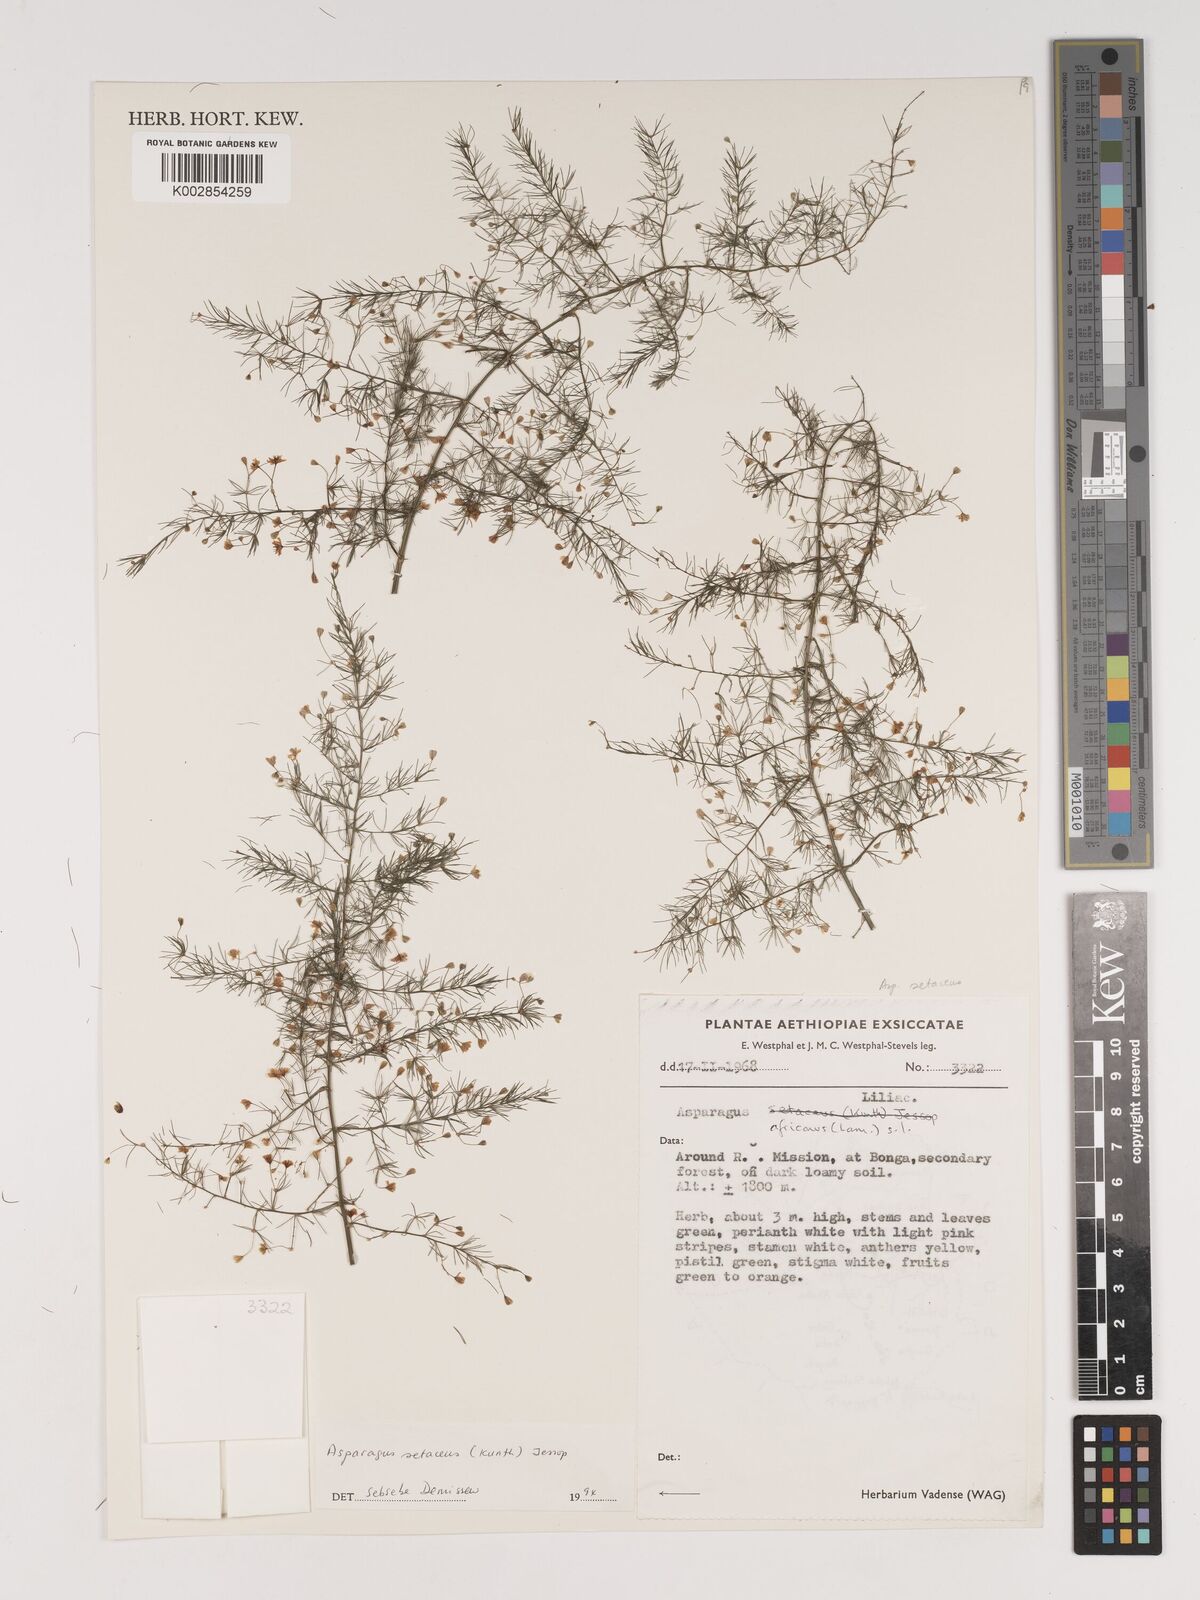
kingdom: Plantae
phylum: Tracheophyta
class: Liliopsida
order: Asparagales
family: Asparagaceae
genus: Asparagus
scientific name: Asparagus setaceus
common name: Common asparagus fern
